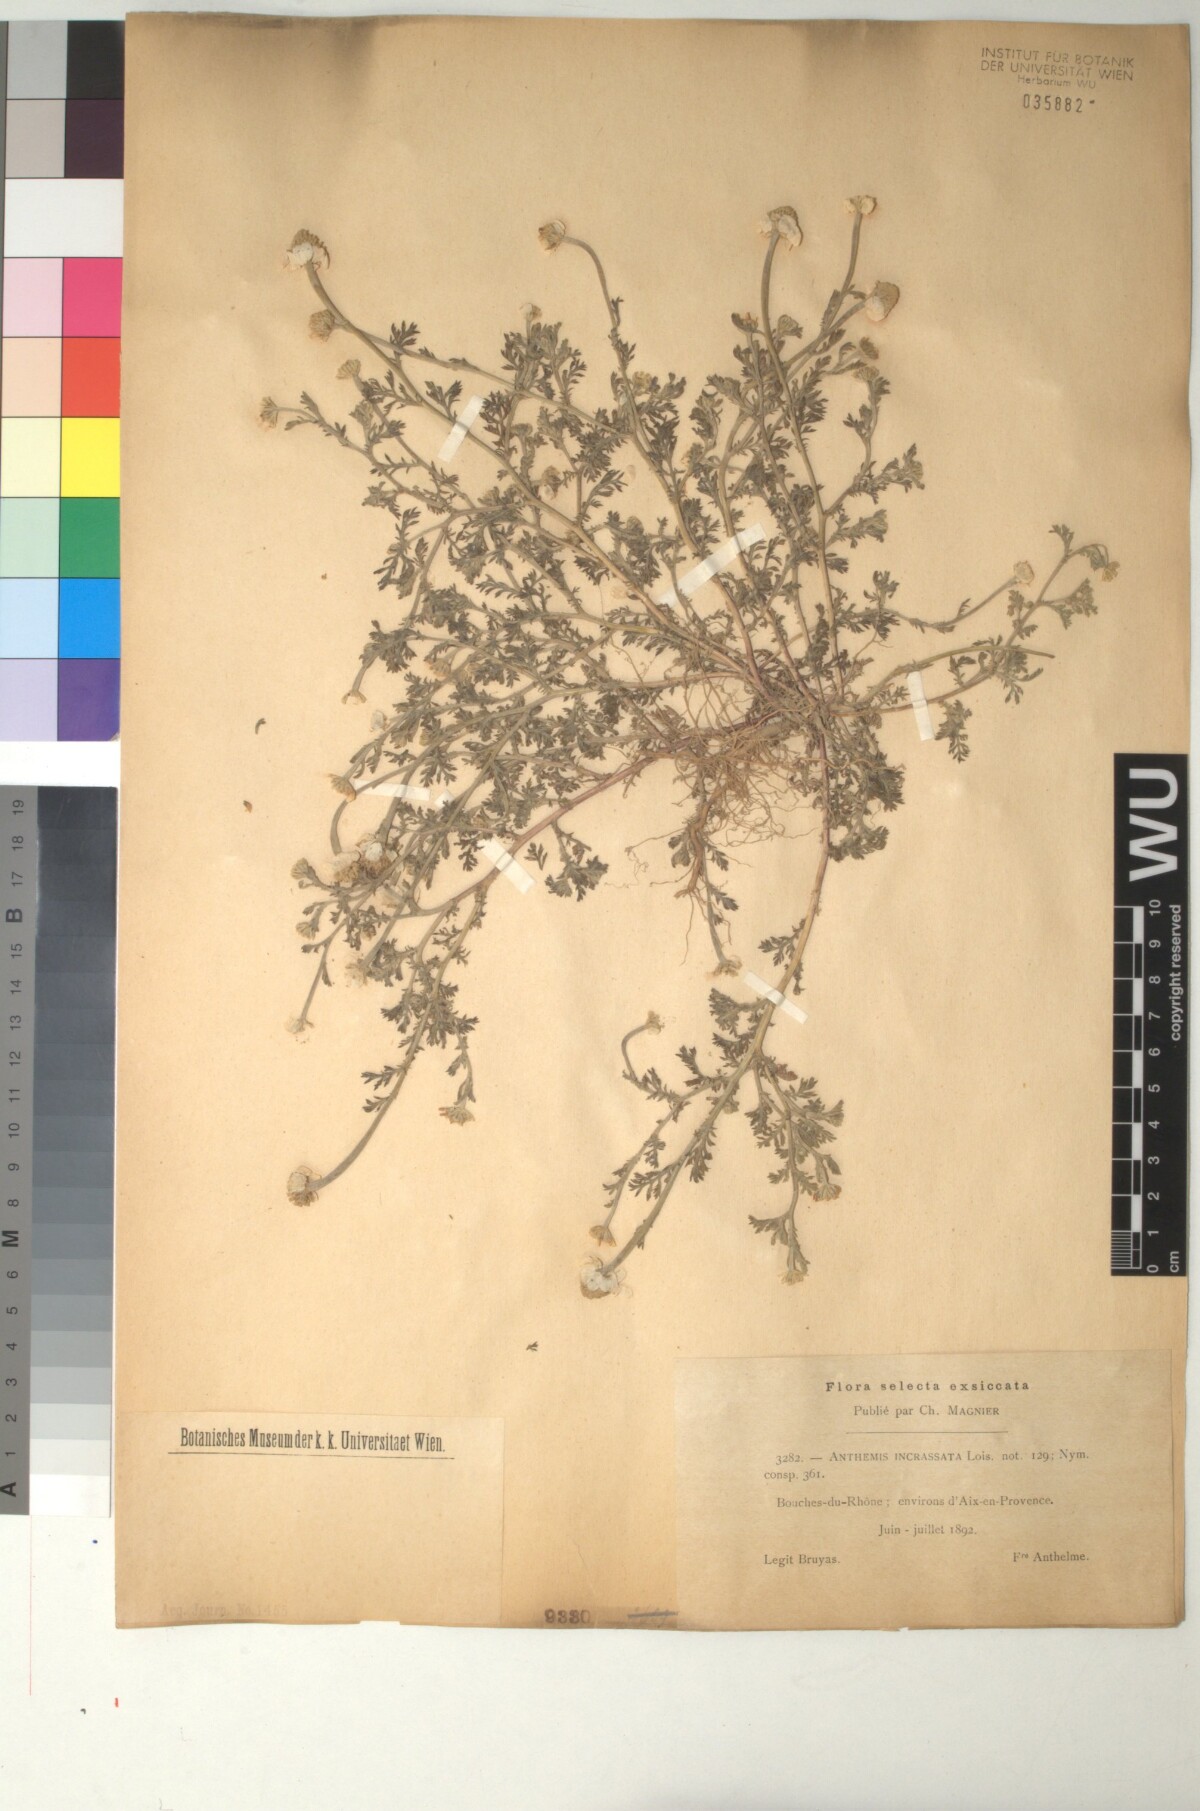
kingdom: Plantae
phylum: Tracheophyta
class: Magnoliopsida
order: Asterales
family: Asteraceae
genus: Anthemis
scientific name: Anthemis arvensis
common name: Corn chamomile
